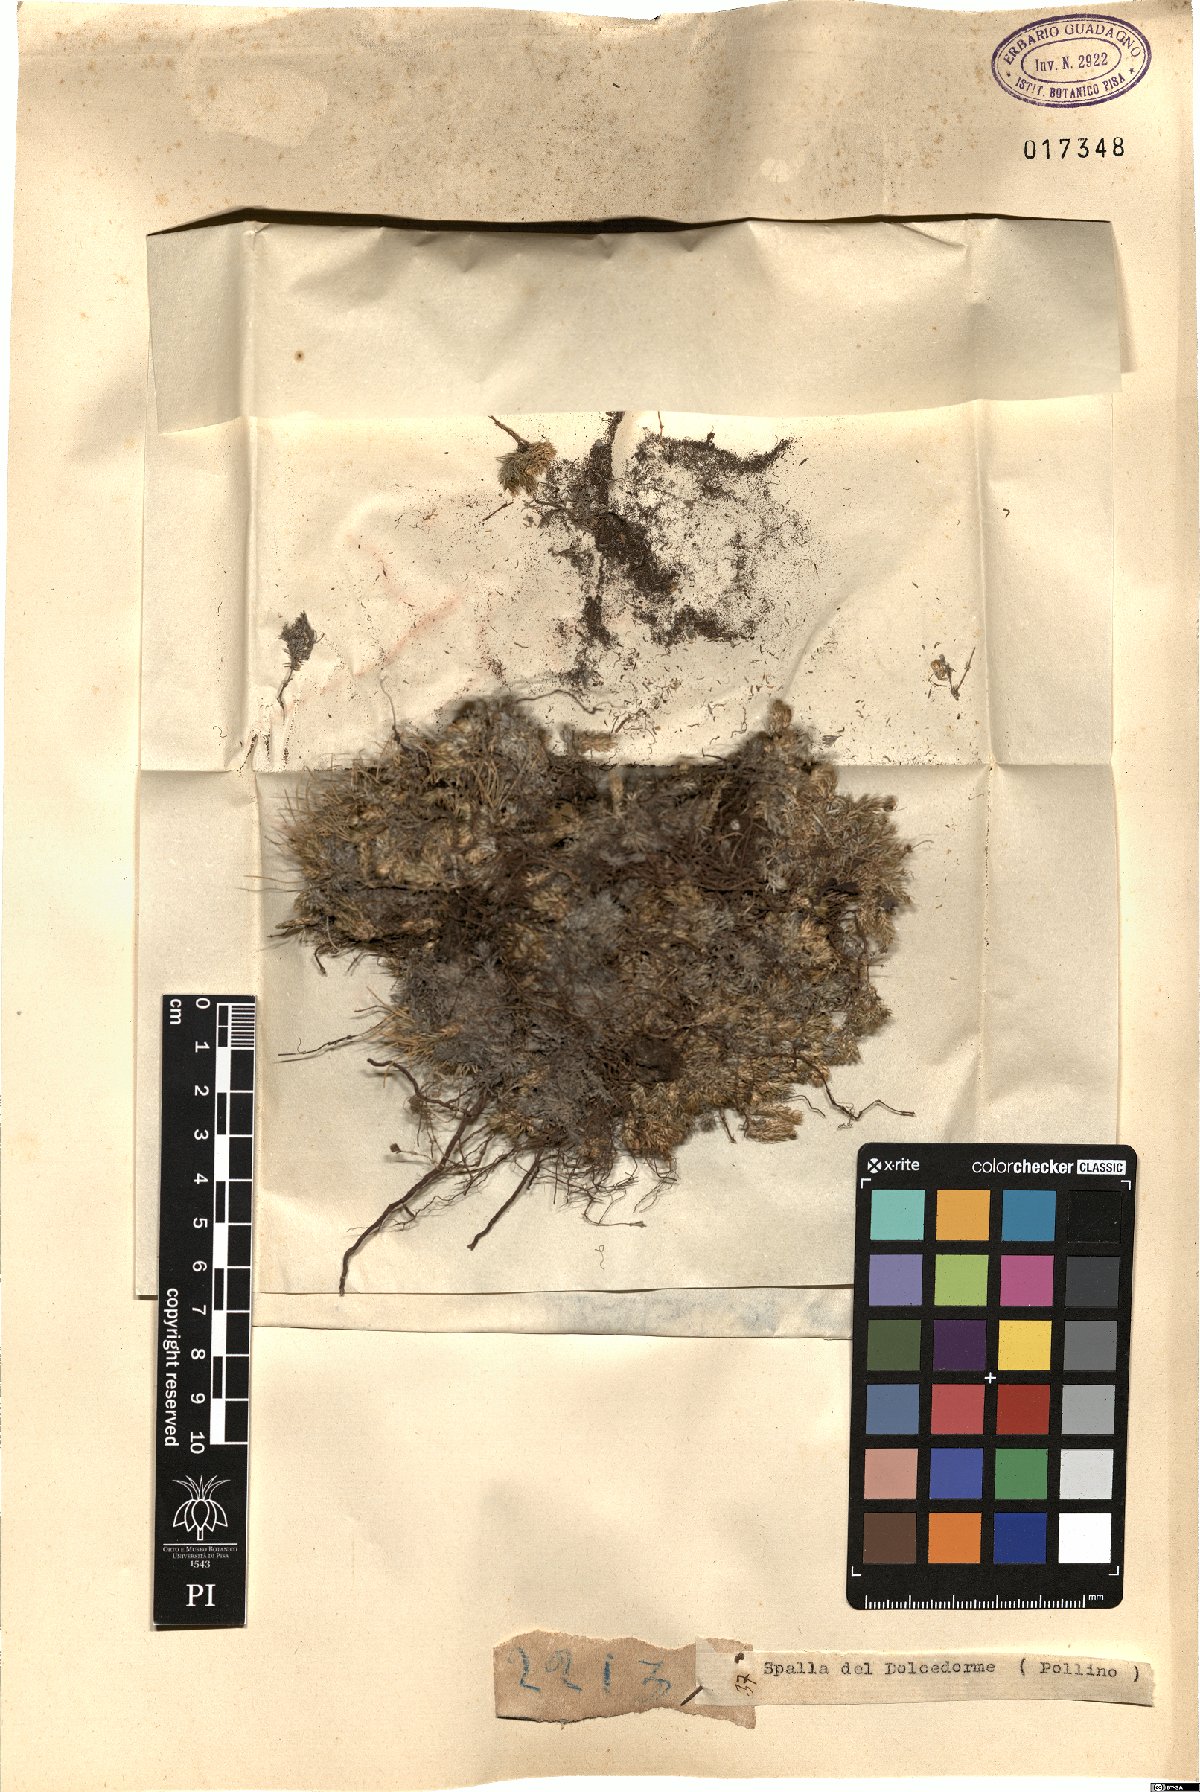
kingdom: Plantae
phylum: Tracheophyta
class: Magnoliopsida
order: Gentianales
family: Rubiaceae
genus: Galium
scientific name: Galium
